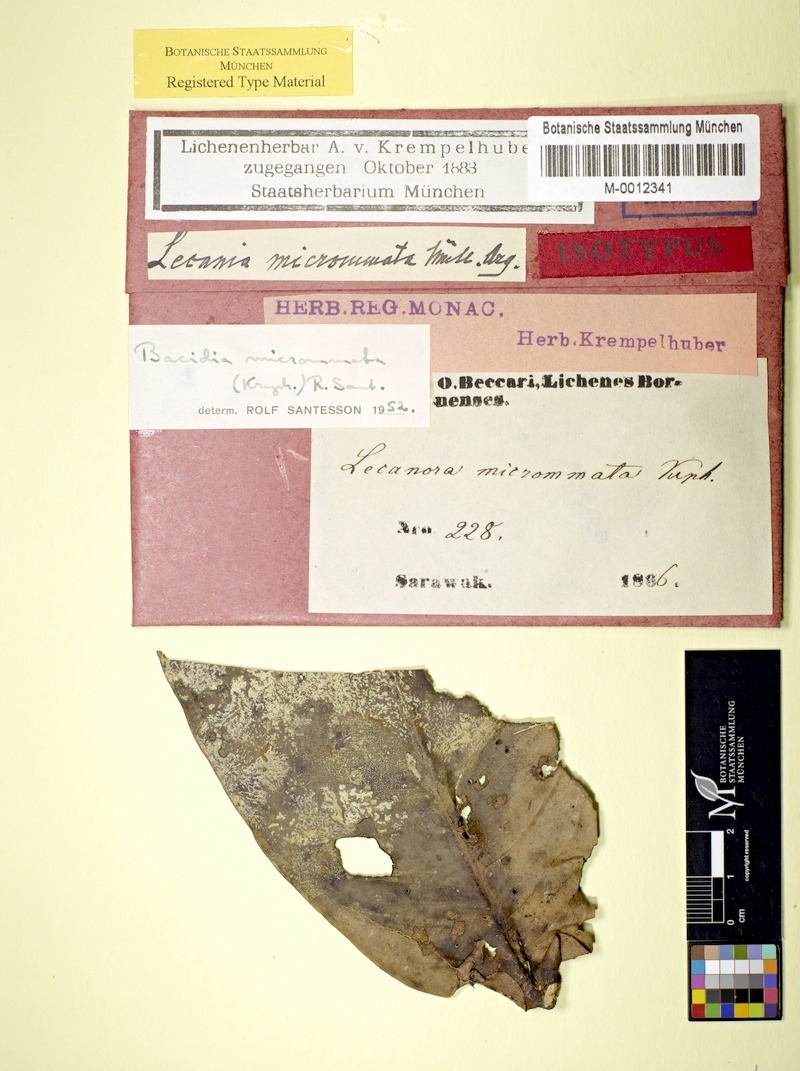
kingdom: Fungi
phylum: Ascomycota
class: Lecanoromycetes
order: Lecanorales
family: Byssolomataceae
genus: Eugeniella
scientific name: Eugeniella micrommata
